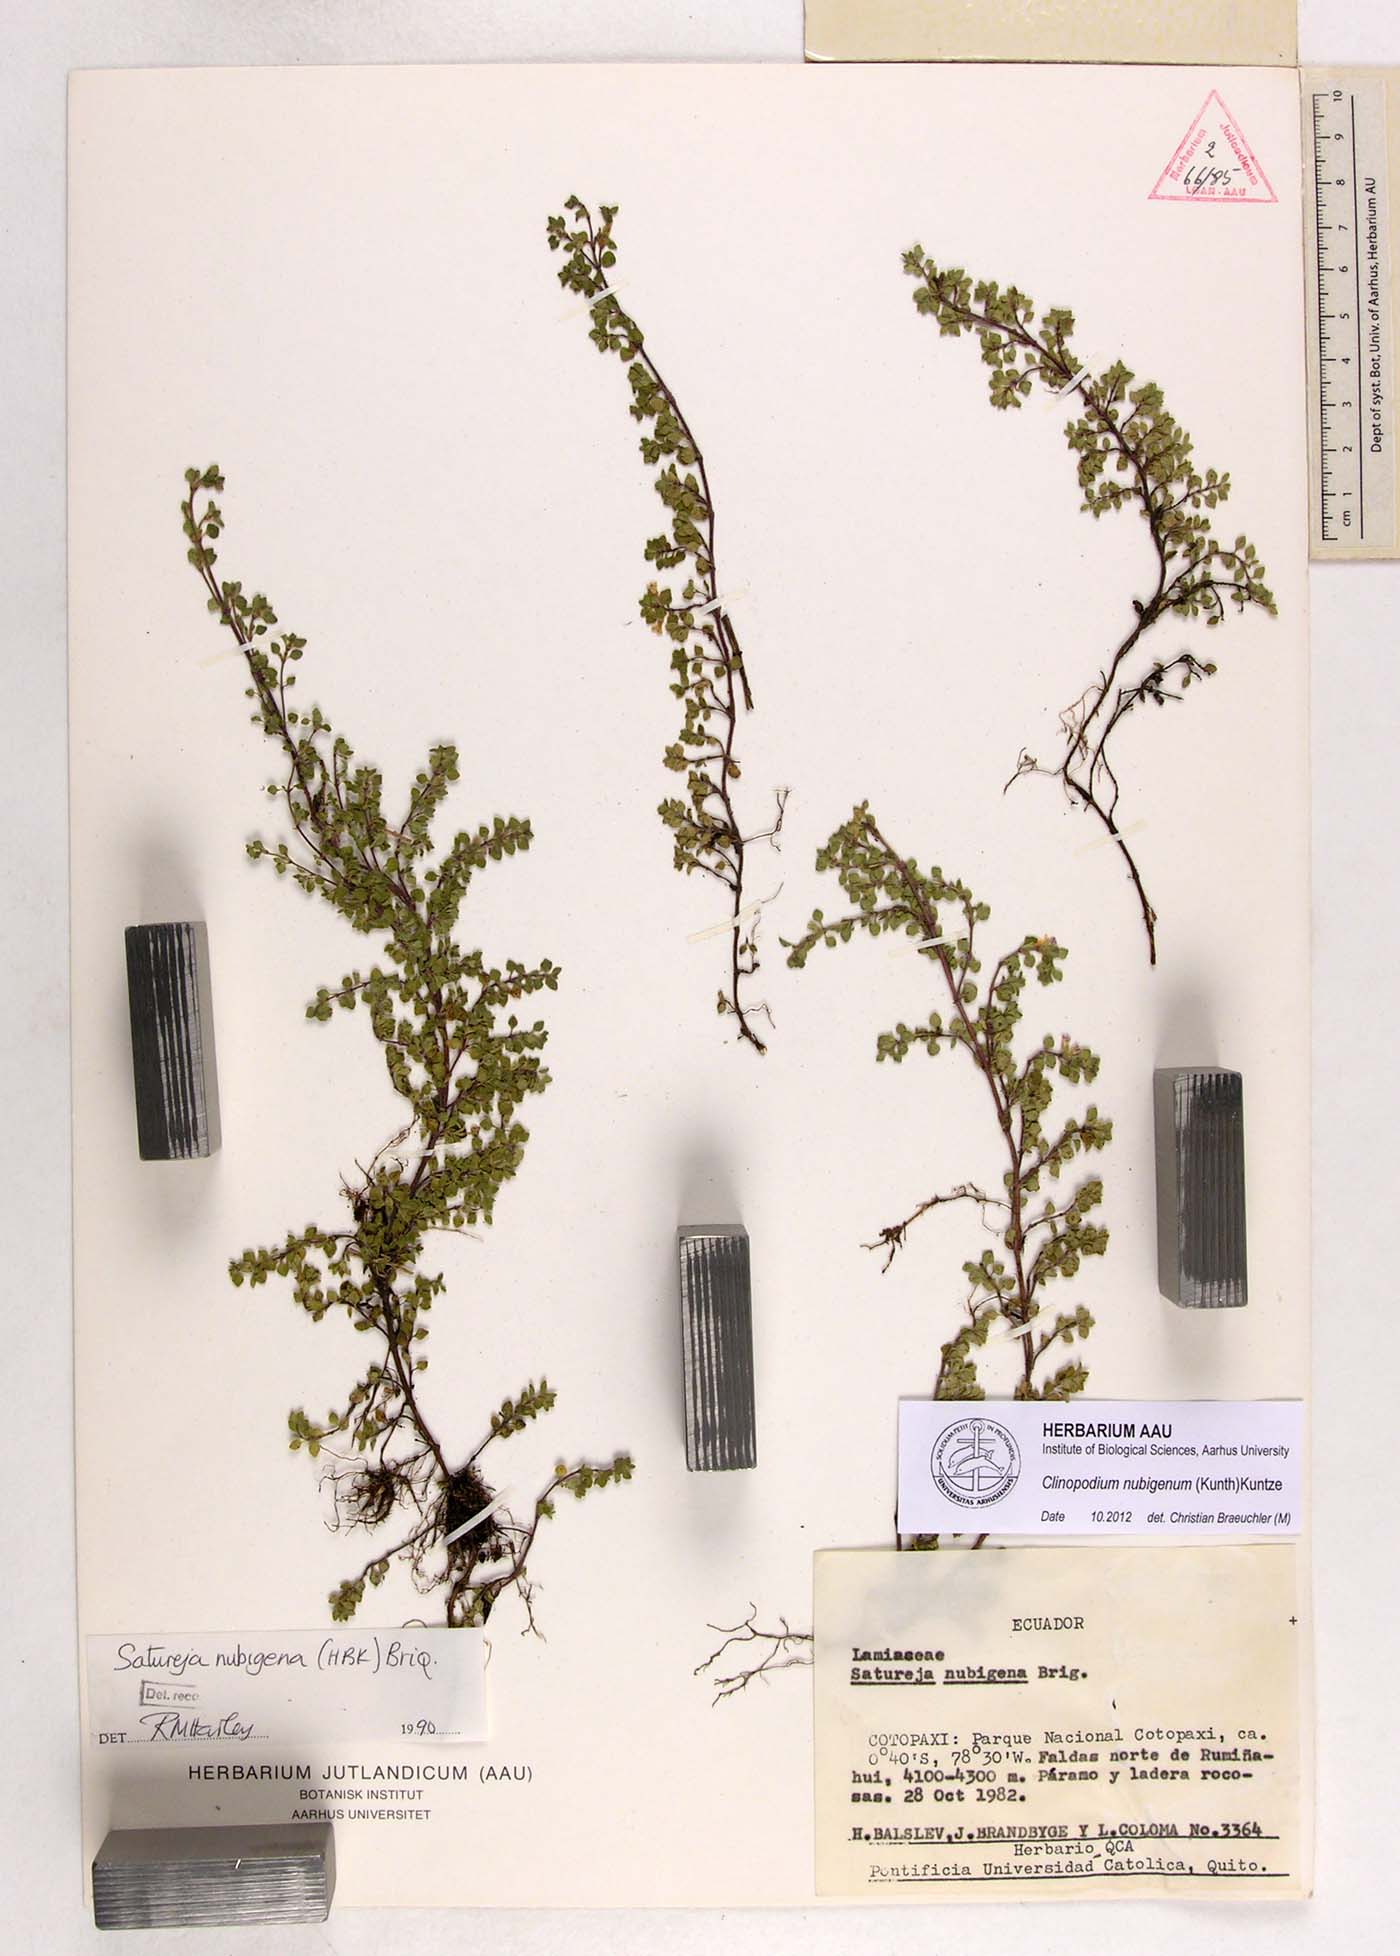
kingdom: Plantae
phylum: Tracheophyta
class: Magnoliopsida
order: Lamiales
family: Lamiaceae
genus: Clinopodium
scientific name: Clinopodium nubigenum
